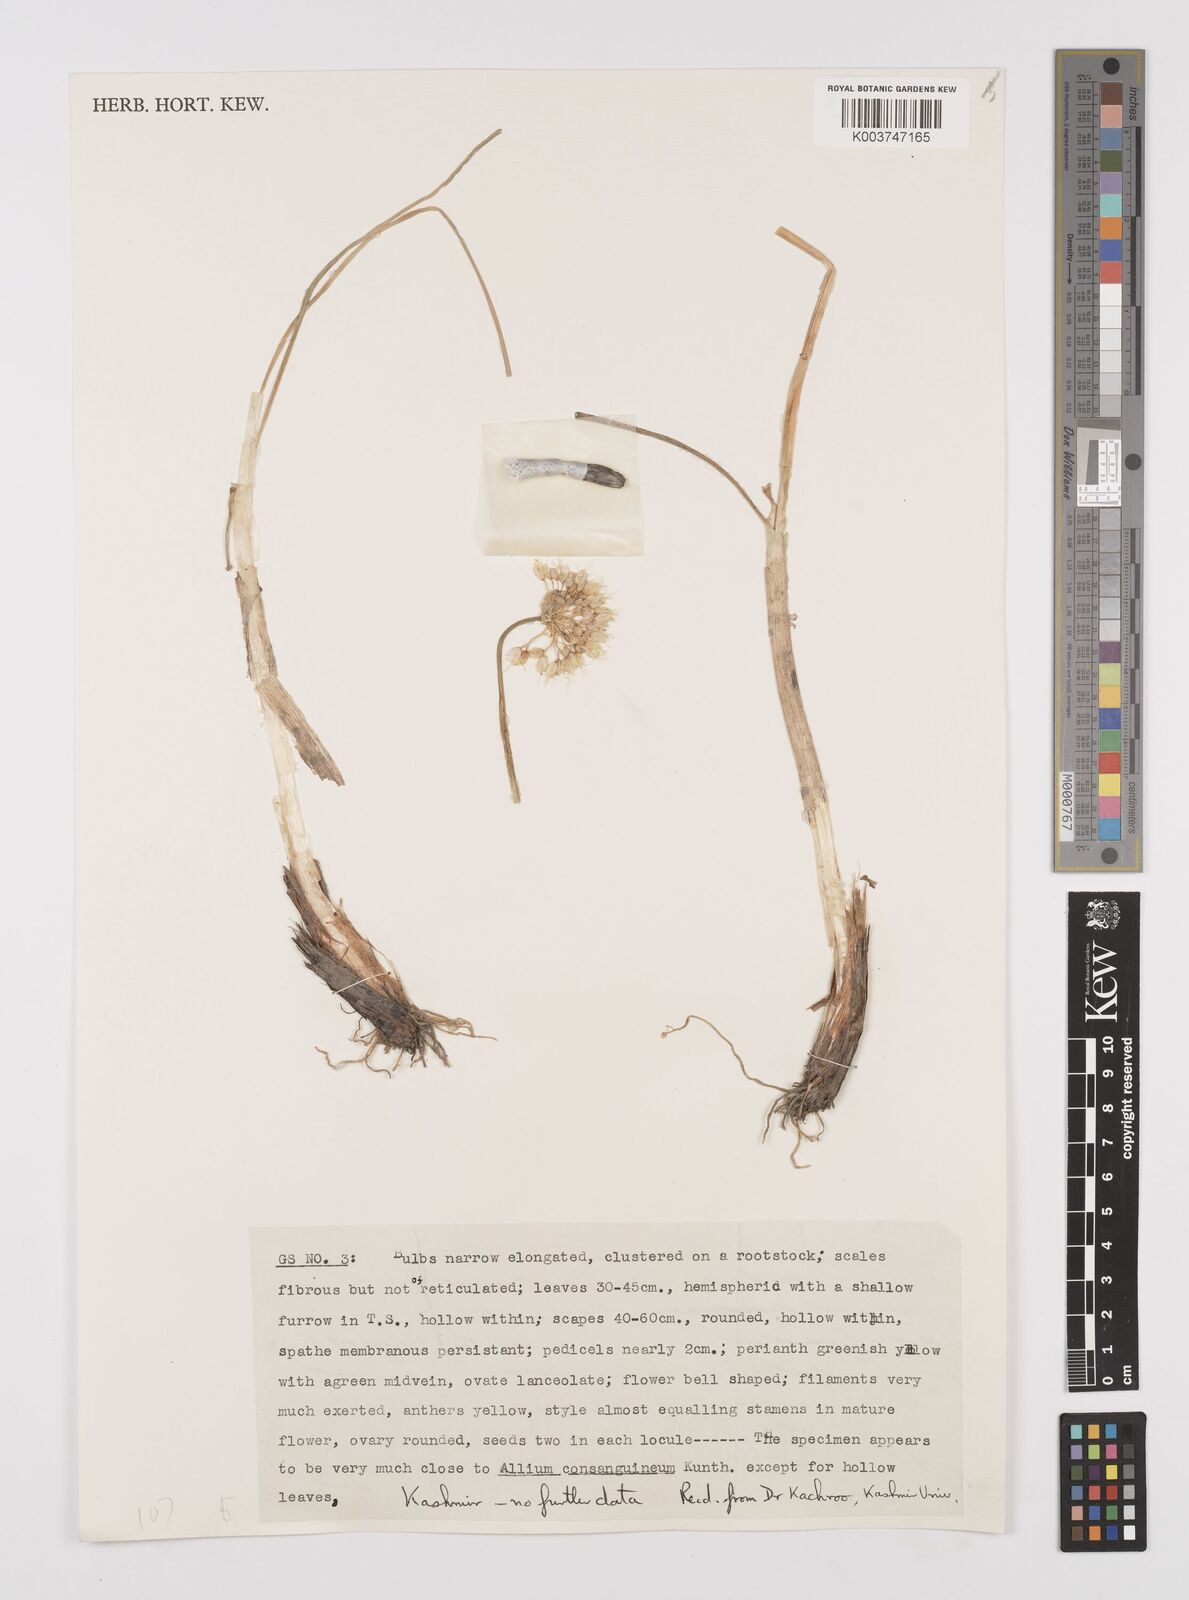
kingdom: Plantae
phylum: Tracheophyta
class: Liliopsida
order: Asparagales
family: Amaryllidaceae
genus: Allium
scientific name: Allium stracheyi
